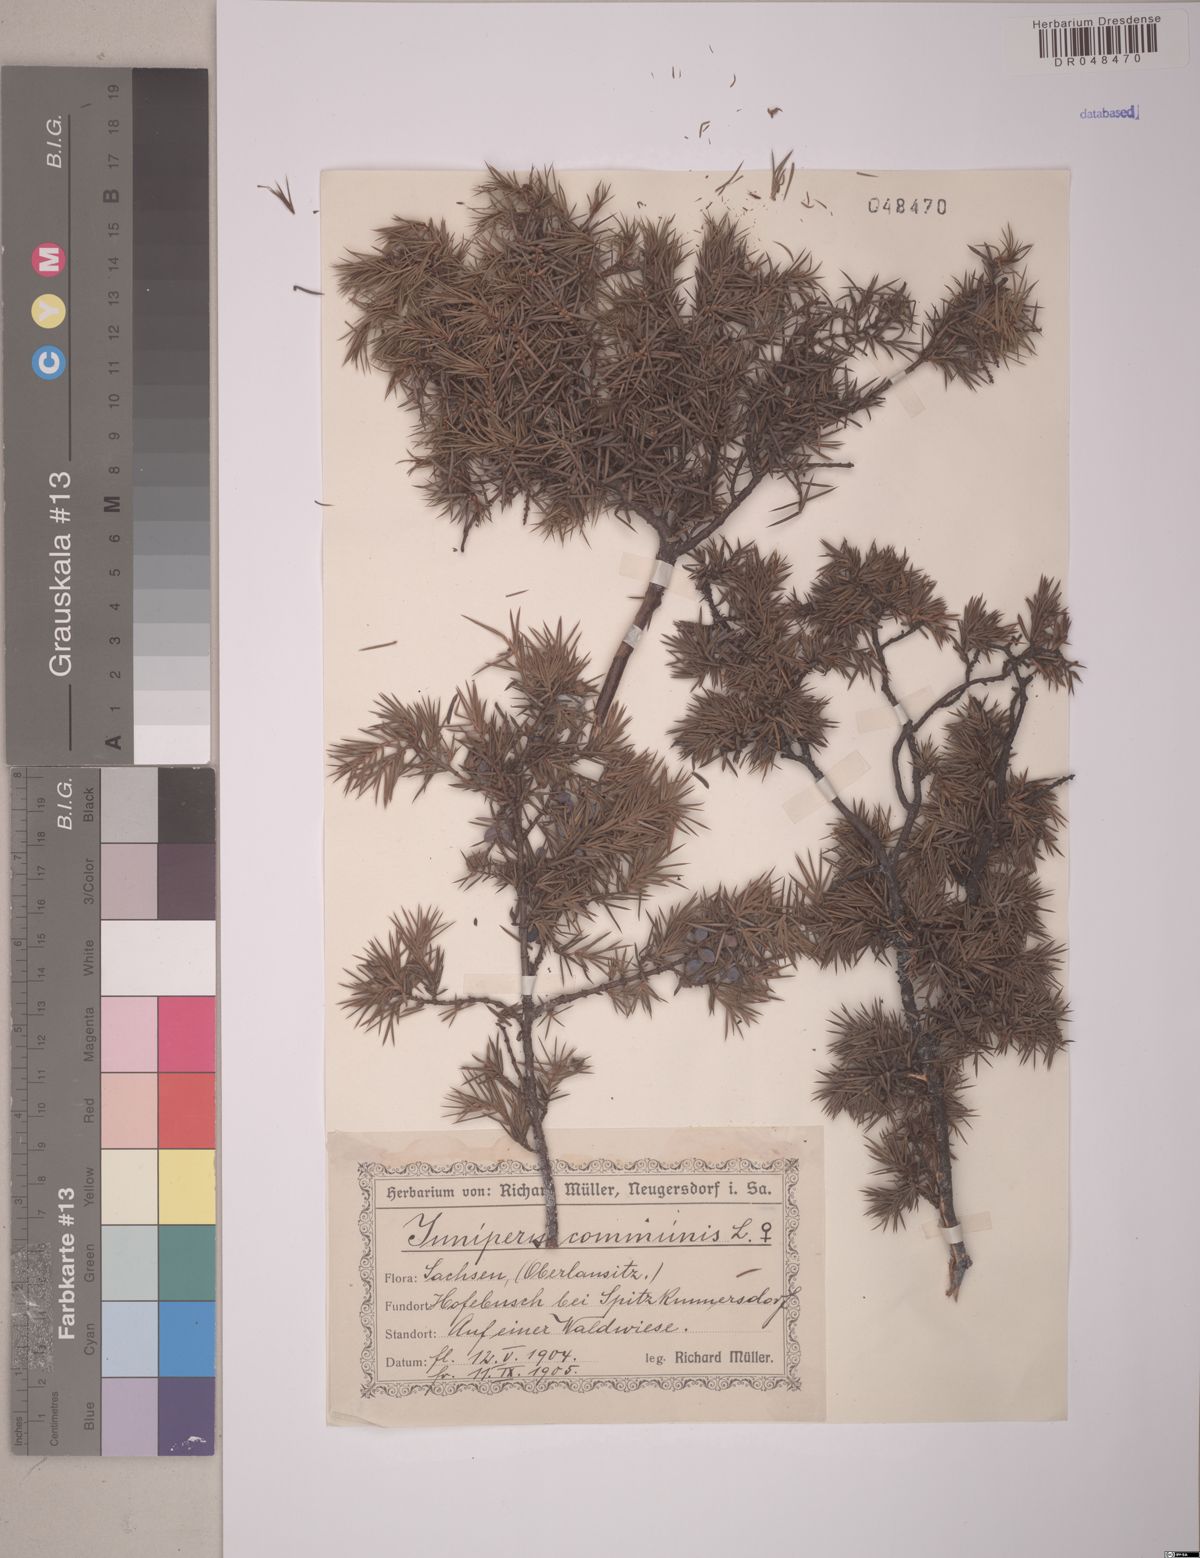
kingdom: Plantae
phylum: Tracheophyta
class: Pinopsida
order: Pinales
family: Cupressaceae
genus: Juniperus
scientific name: Juniperus communis
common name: Common juniper
